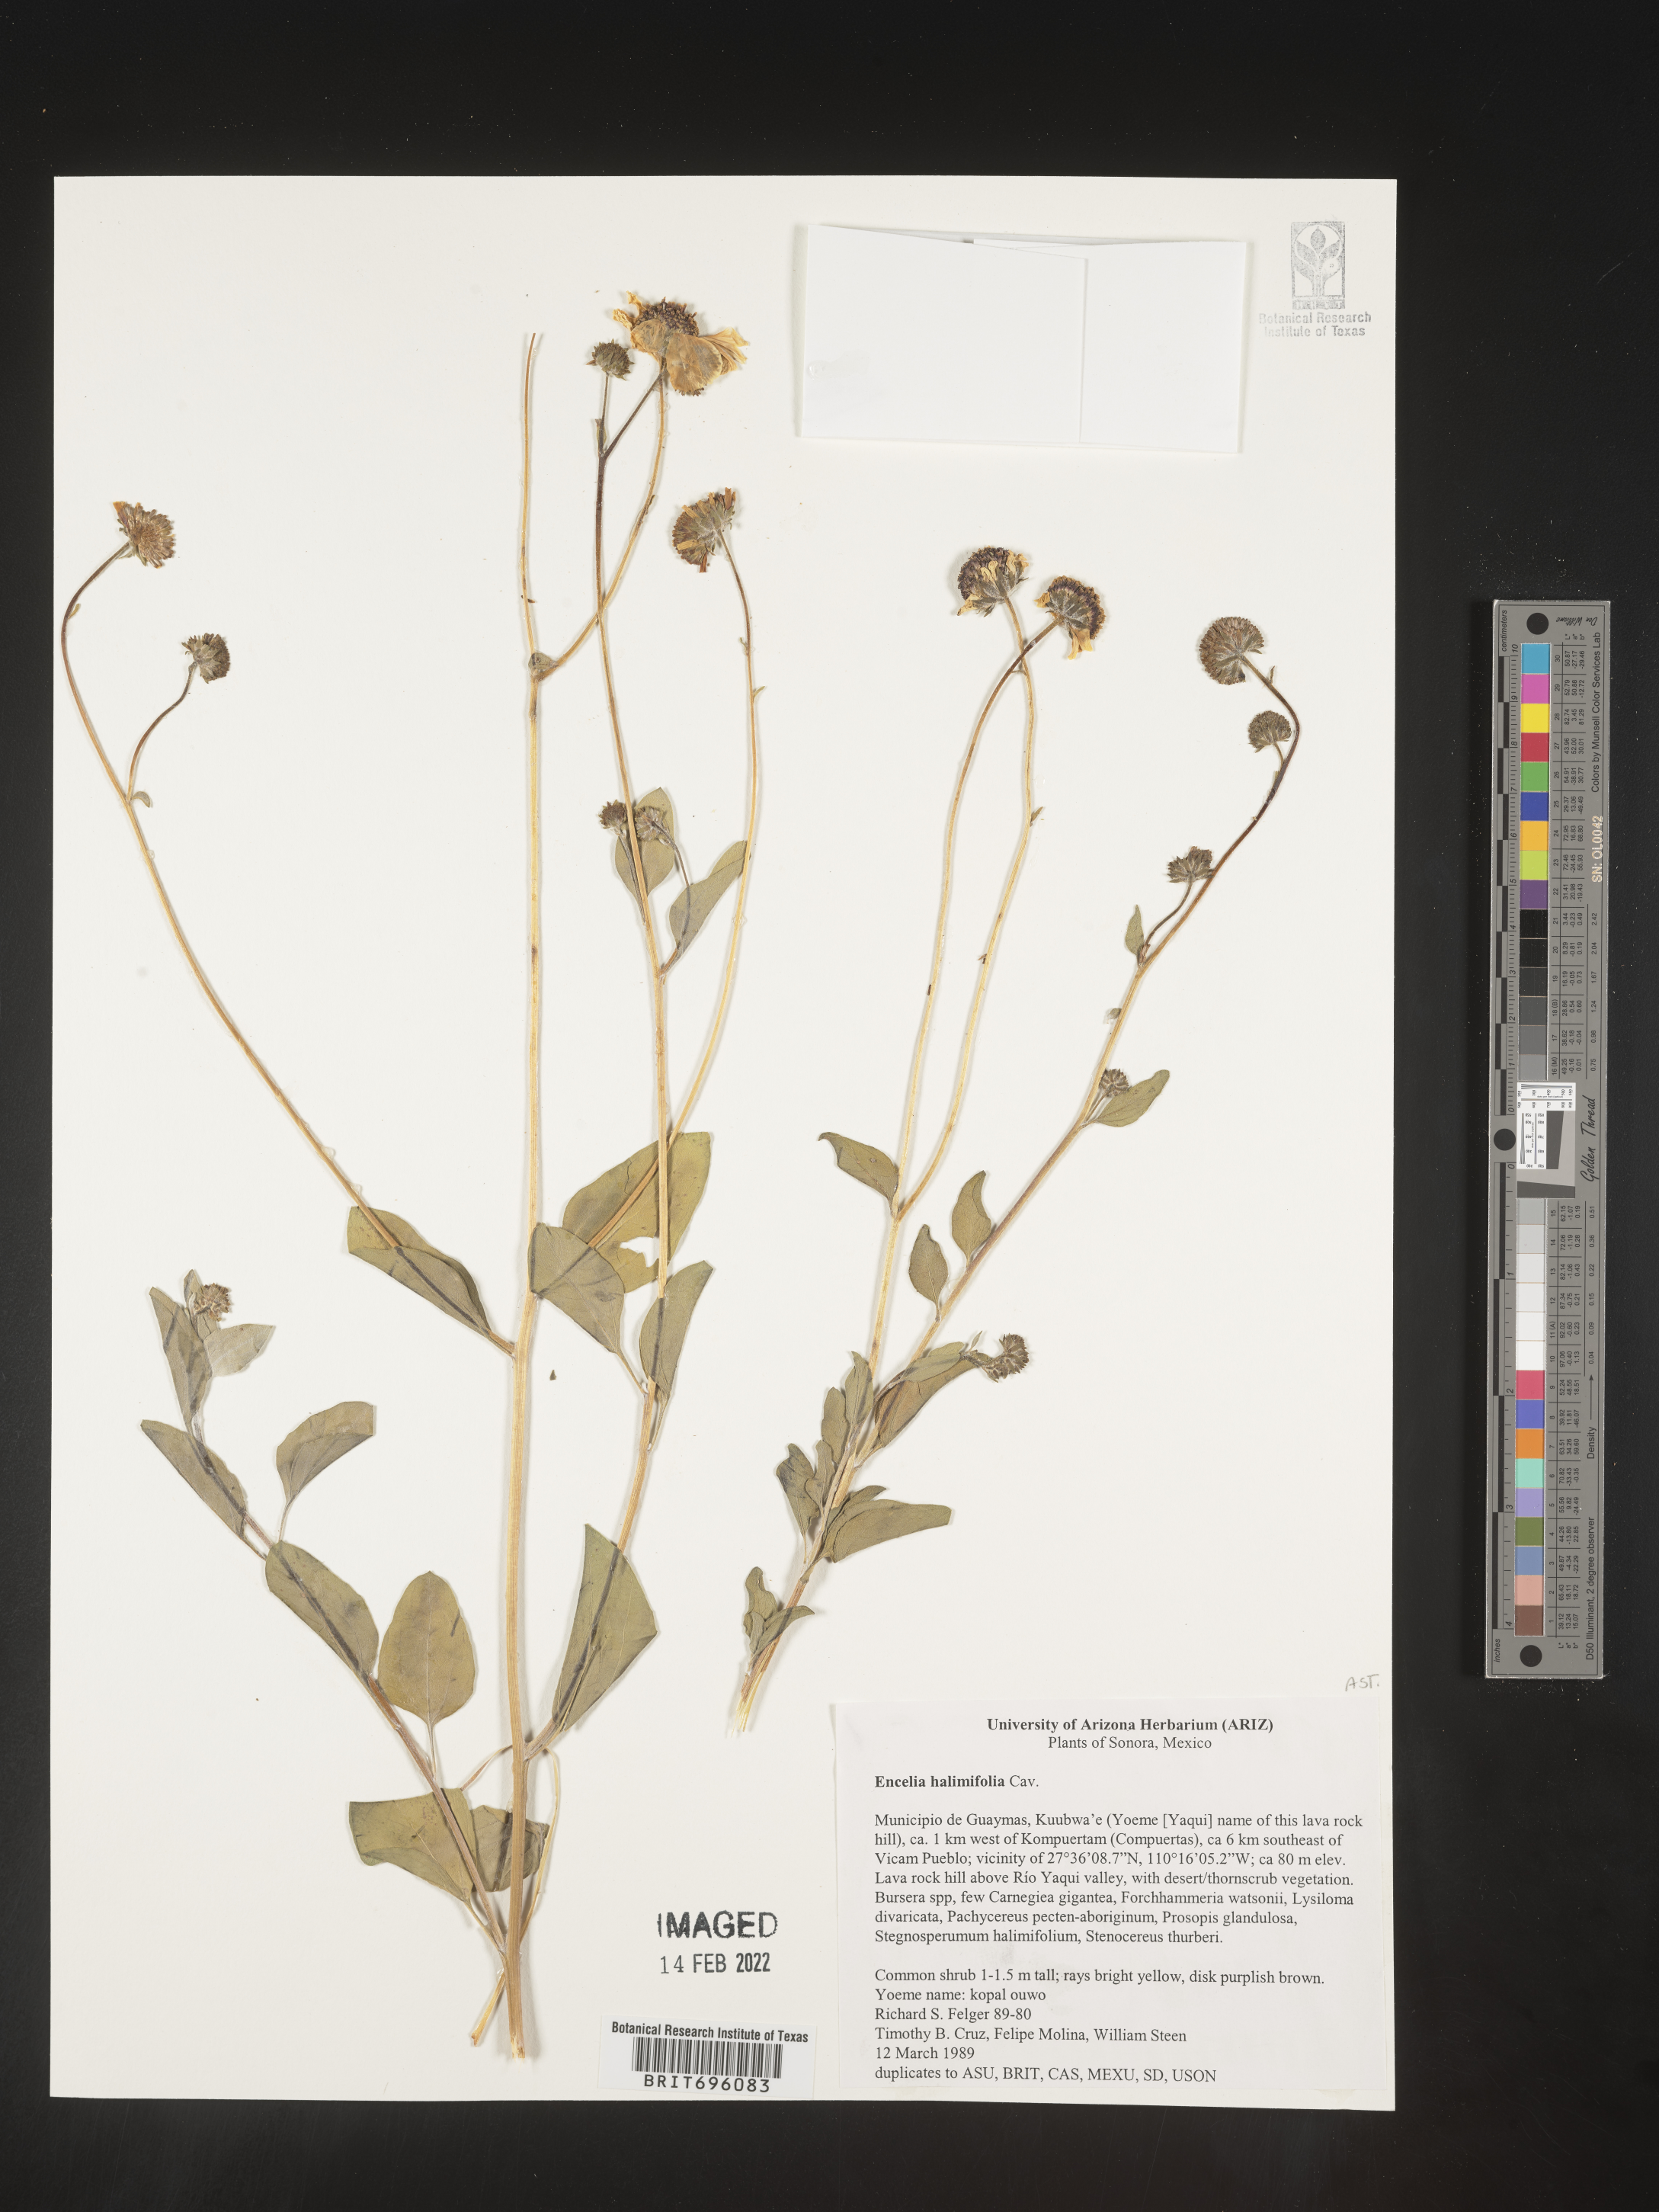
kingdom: Plantae
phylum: Tracheophyta
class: Magnoliopsida
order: Asterales
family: Asteraceae
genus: Encelia
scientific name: Encelia
